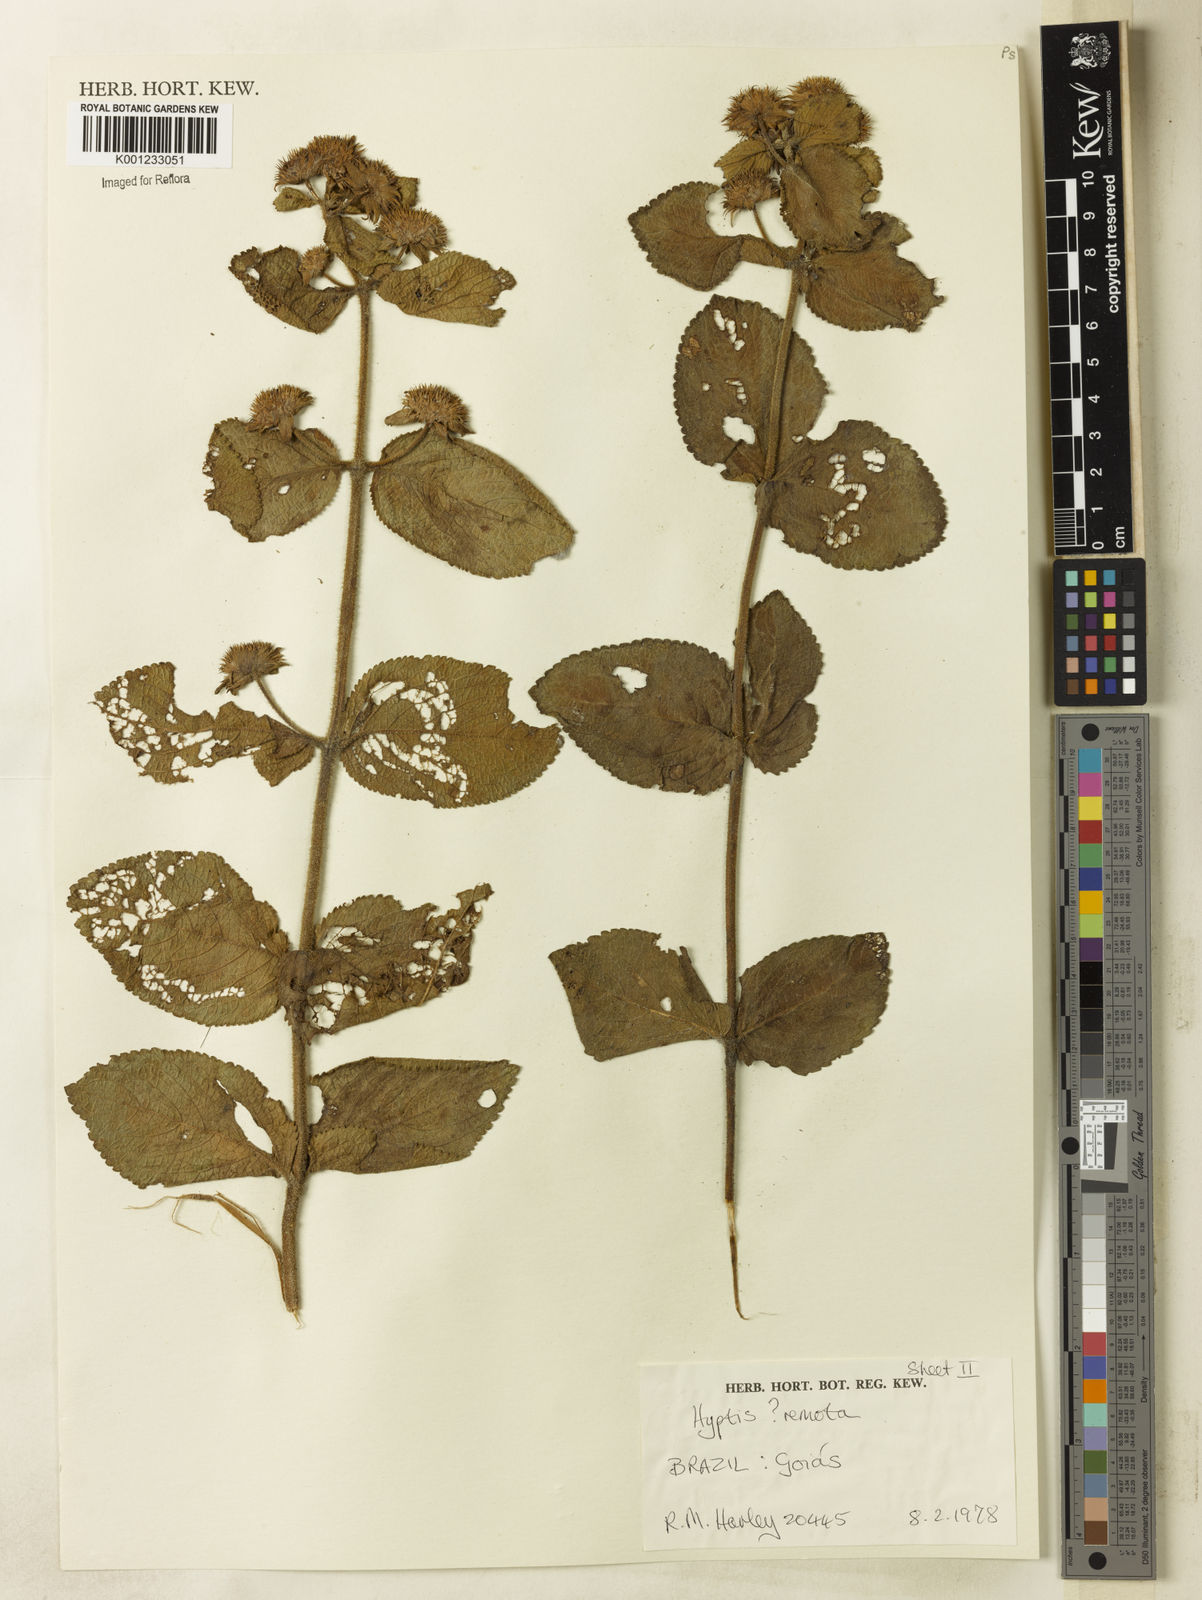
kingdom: Plantae
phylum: Tracheophyta
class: Magnoliopsida
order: Lamiales
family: Lamiaceae
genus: Hyptis
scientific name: Hyptis remota
